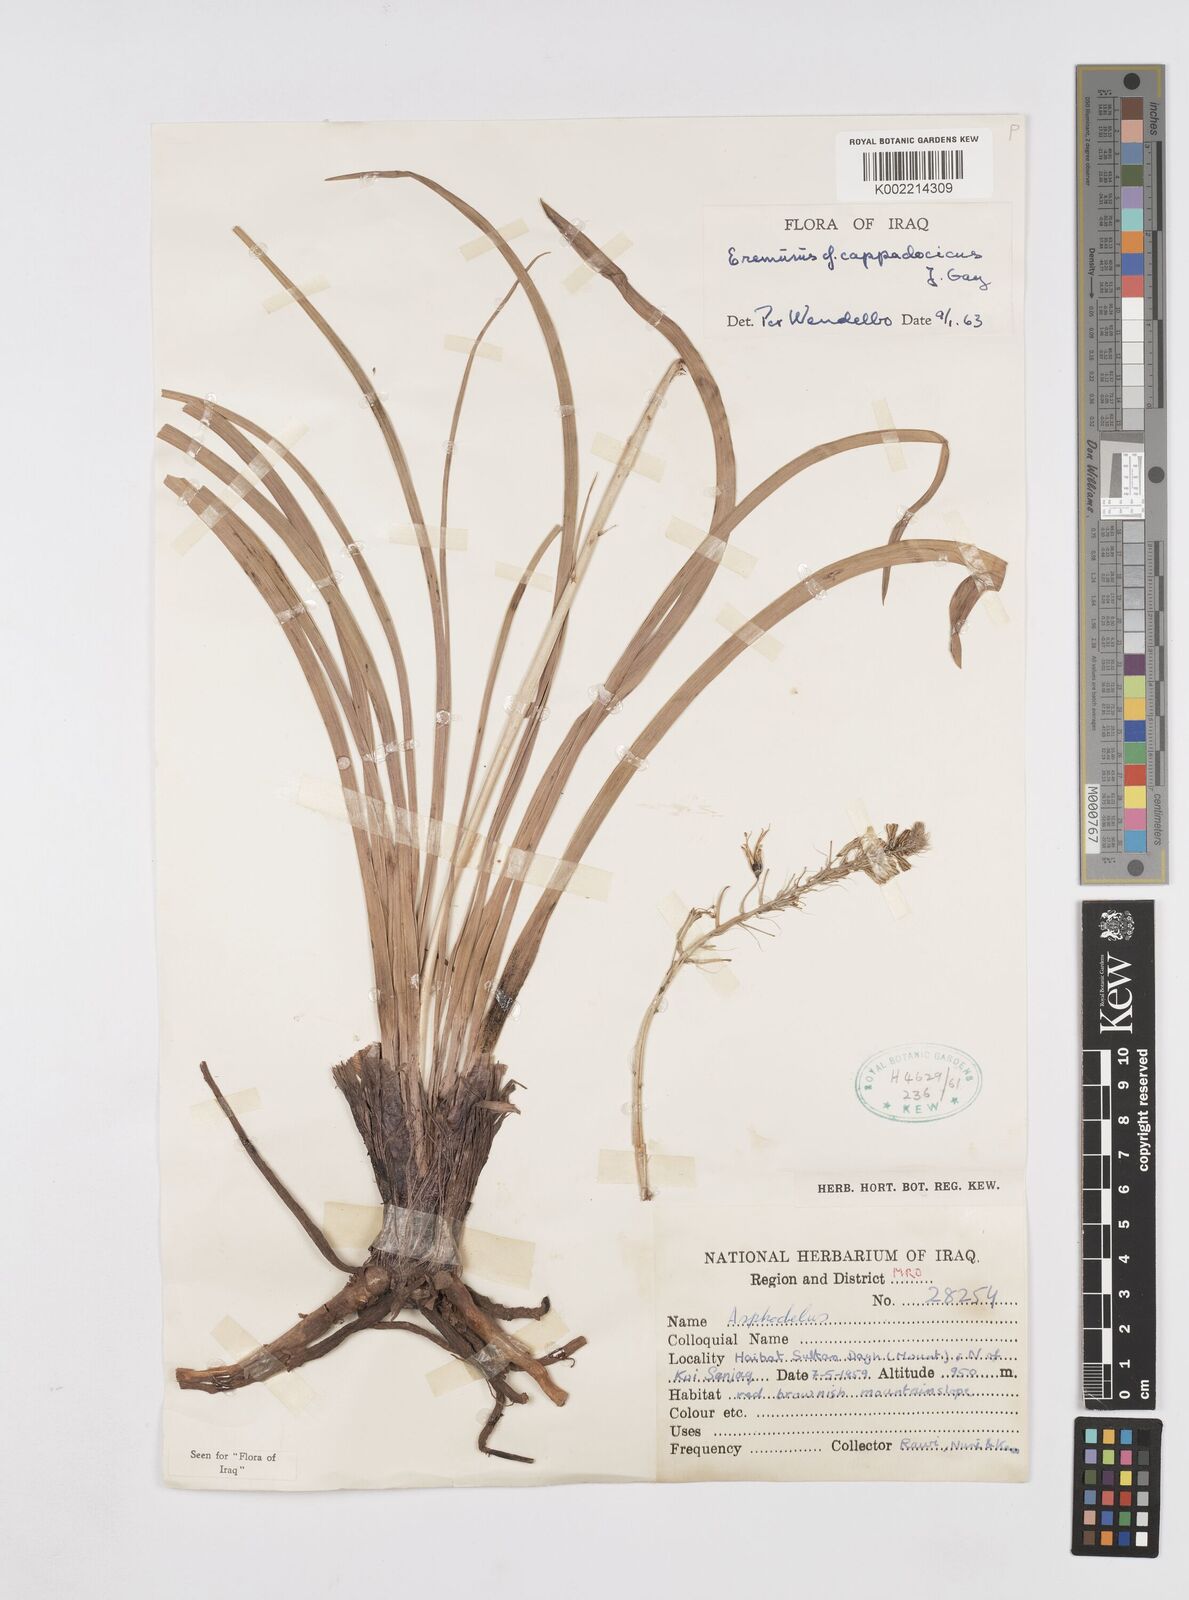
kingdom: Plantae
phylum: Tracheophyta
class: Liliopsida
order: Asparagales
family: Asphodelaceae
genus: Eremurus
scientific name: Eremurus cappadocicus
